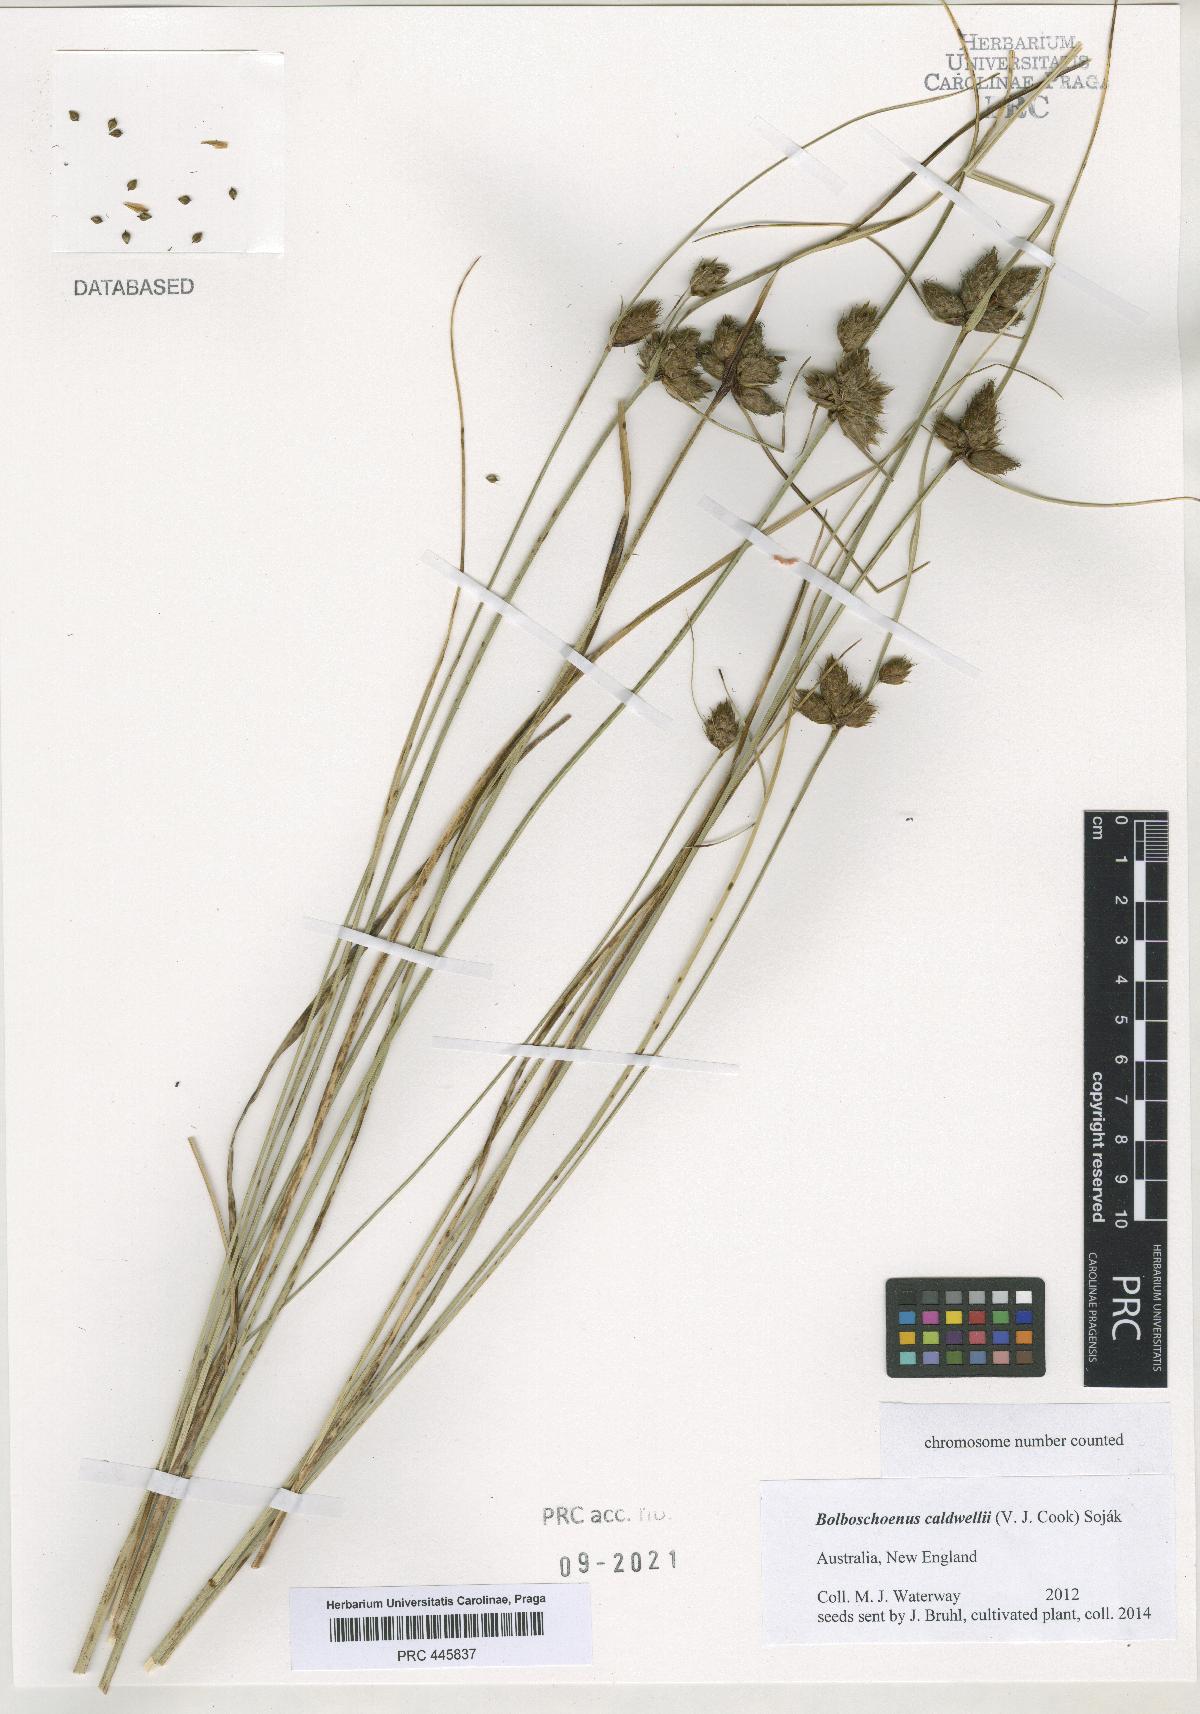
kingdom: Plantae
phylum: Tracheophyta
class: Liliopsida
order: Poales
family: Cyperaceae
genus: Bolboschoenus
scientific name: Bolboschoenus caldwellii
